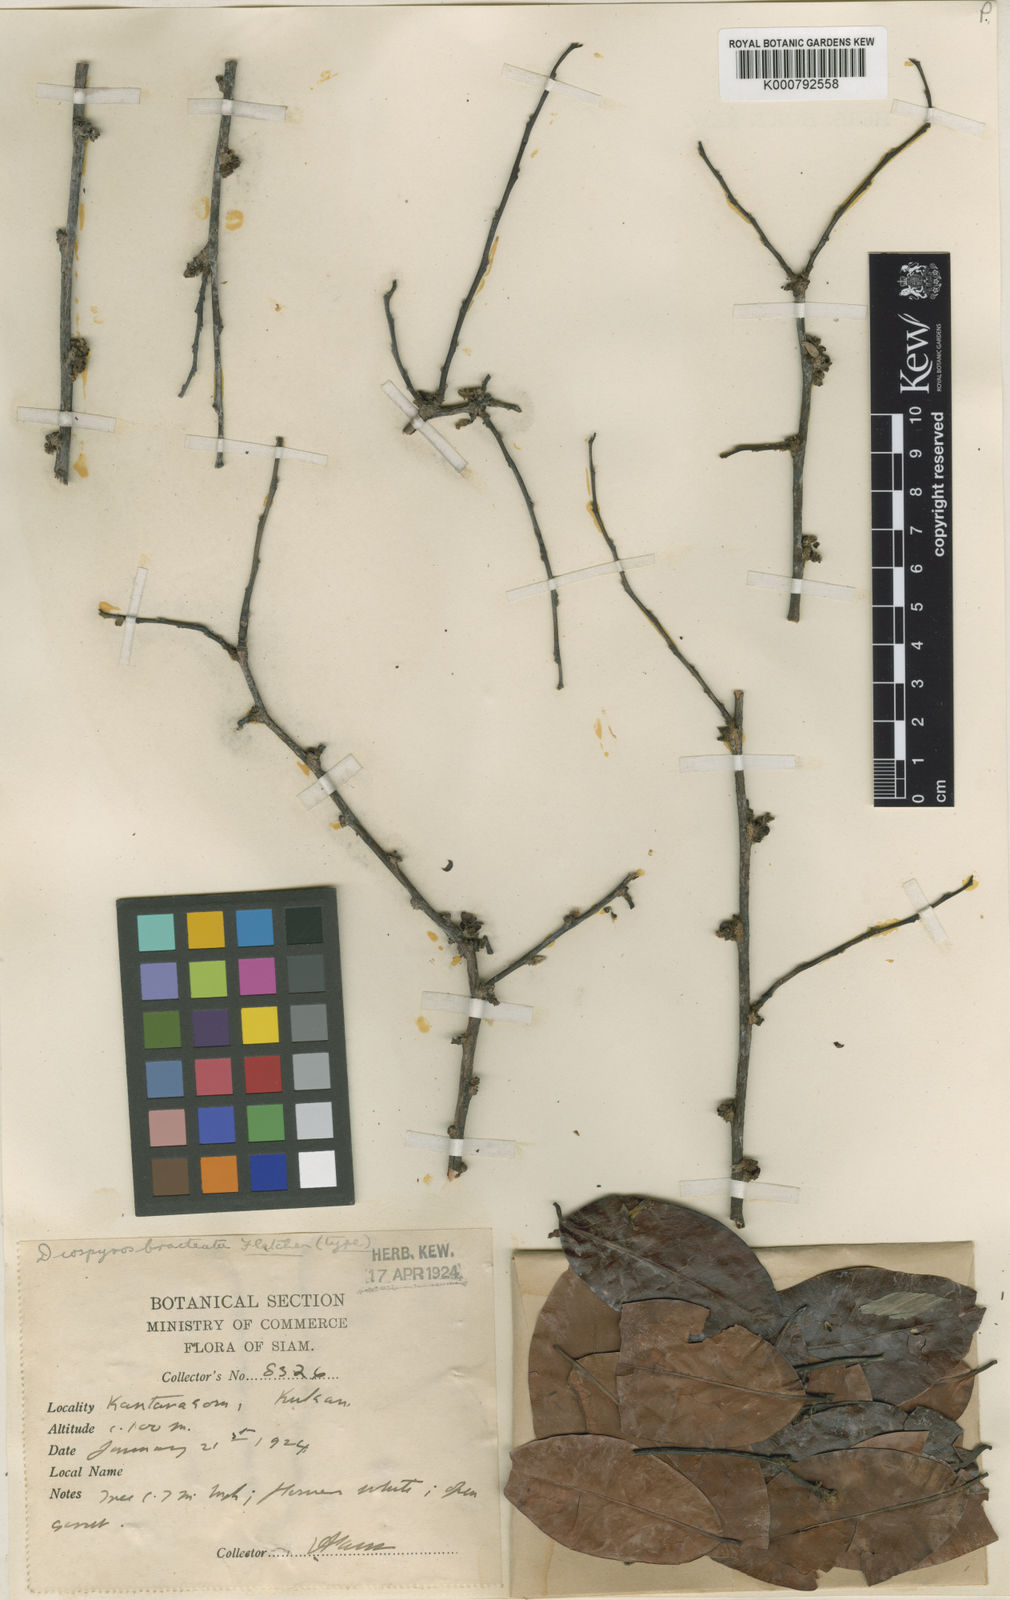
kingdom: Plantae
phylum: Tracheophyta
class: Magnoliopsida
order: Ericales
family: Ebenaceae
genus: Diospyros
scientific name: Diospyros castanea
